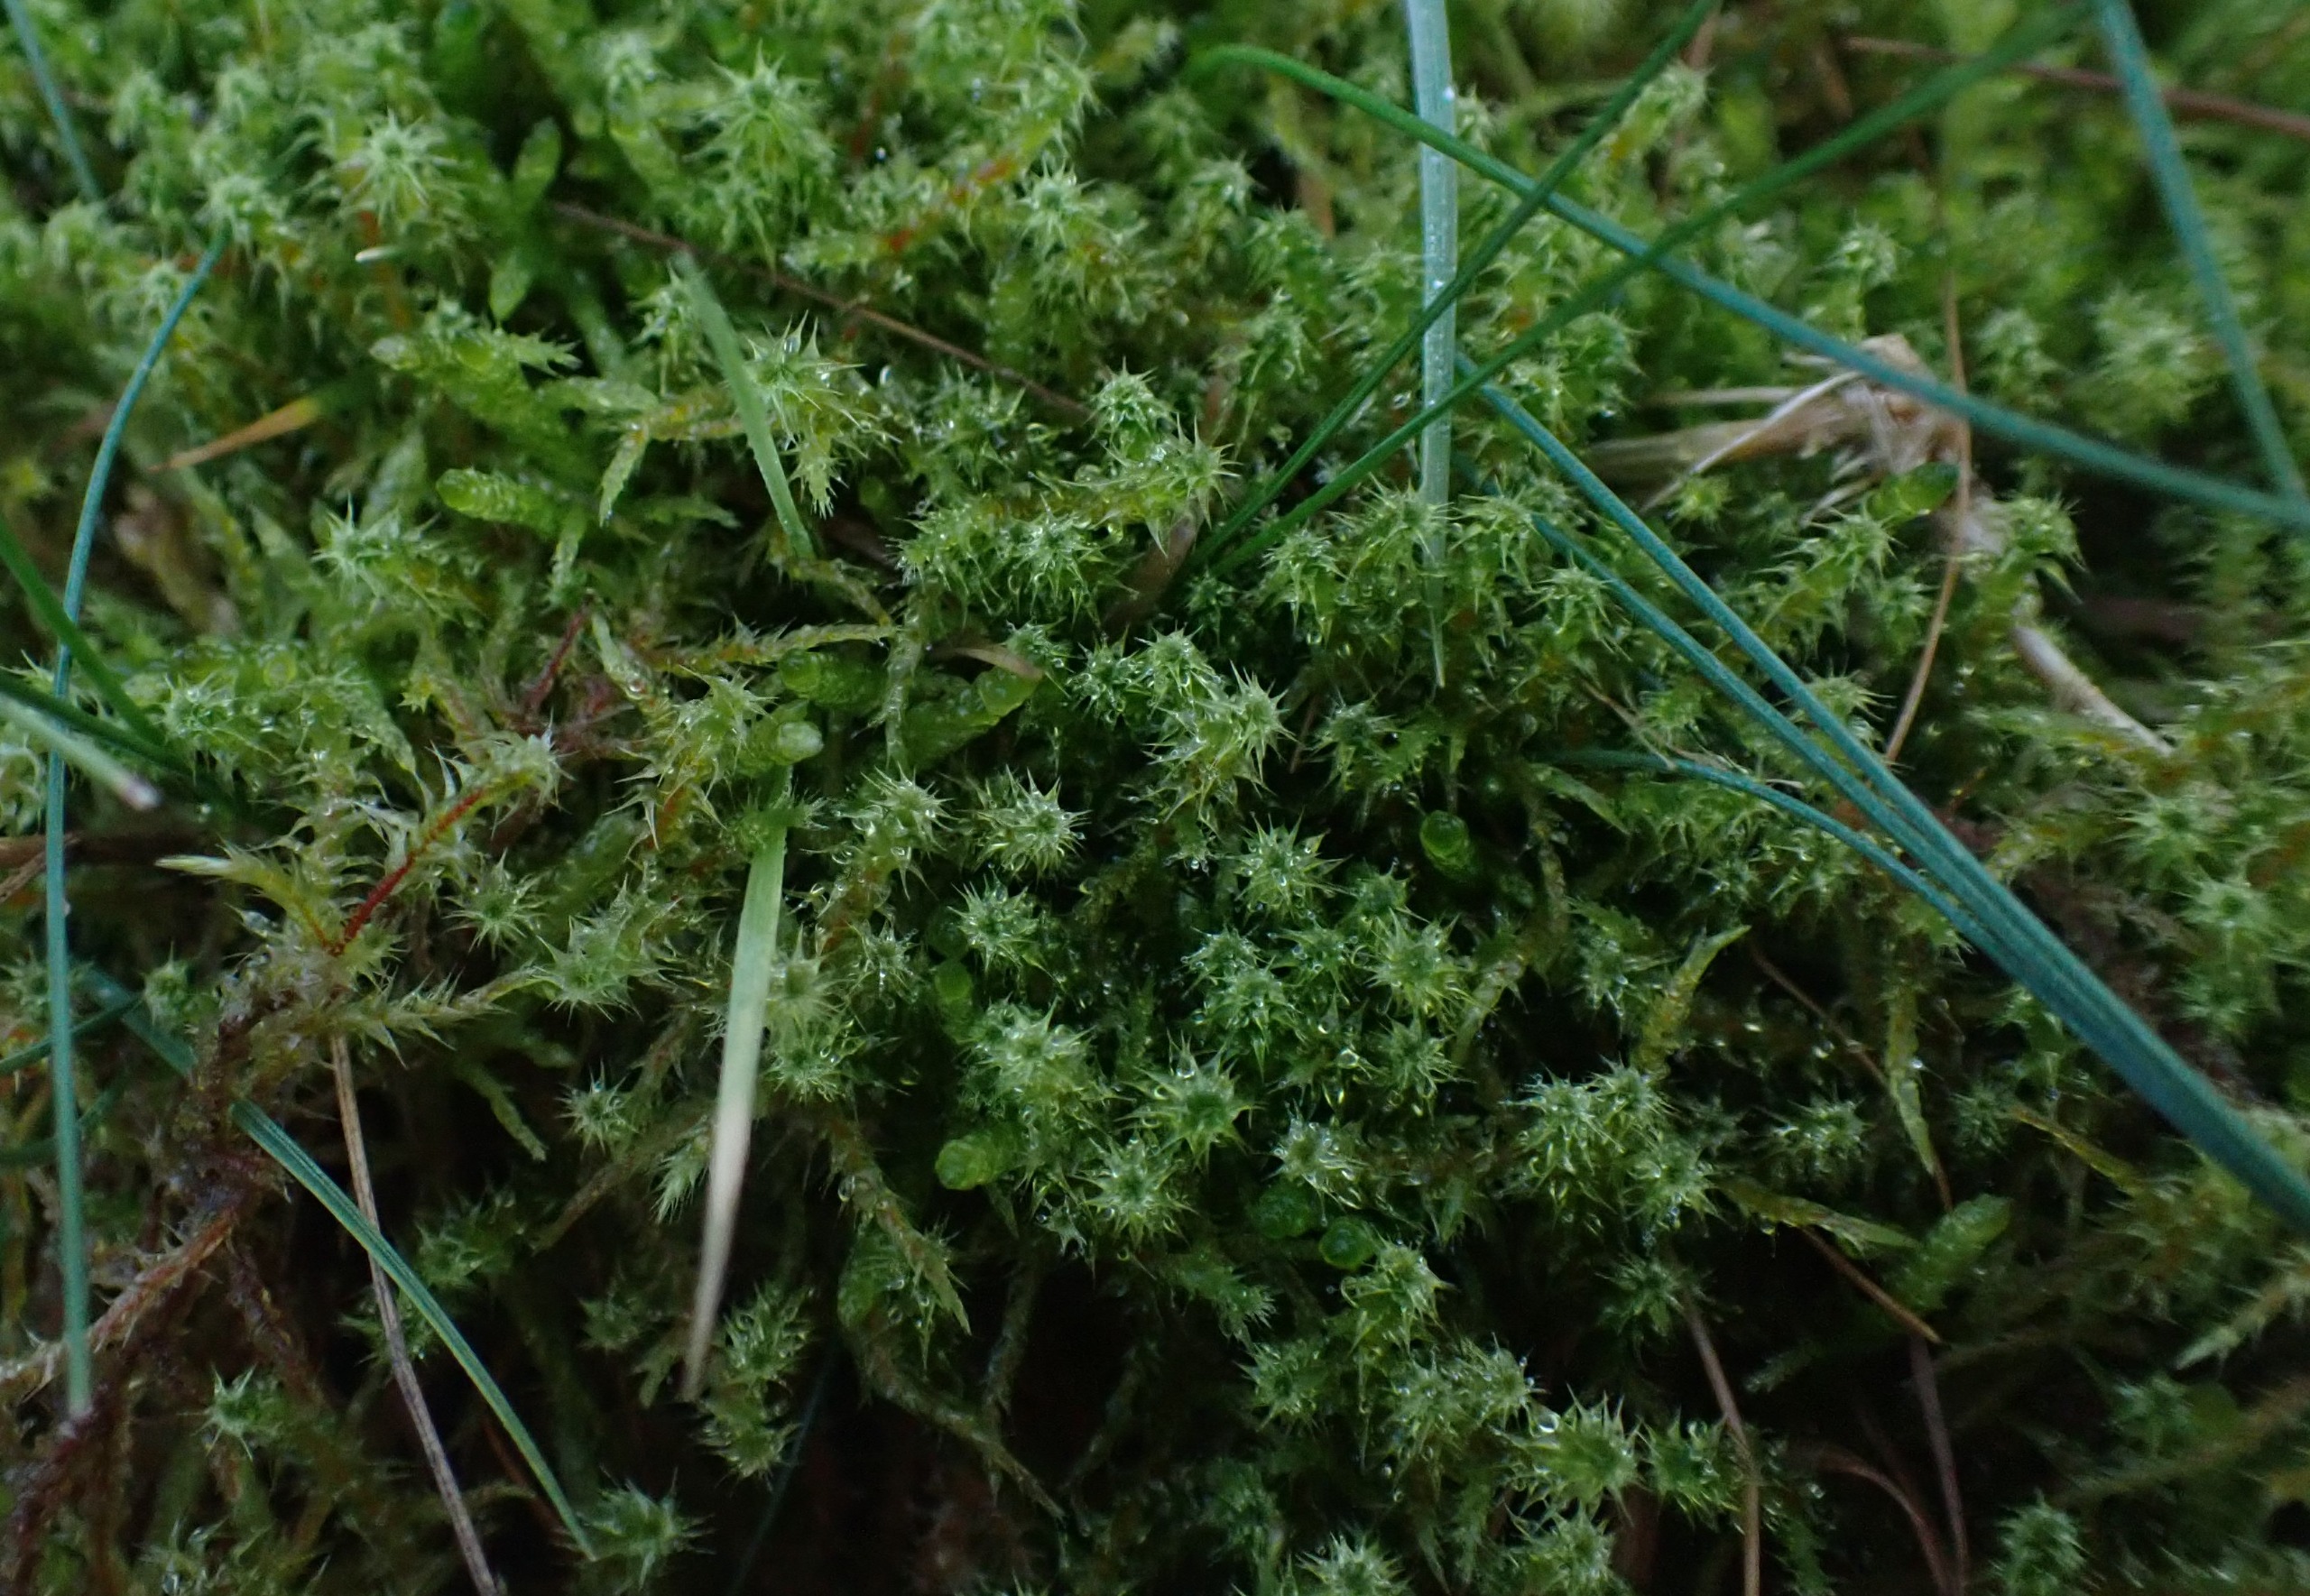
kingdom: Plantae
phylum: Bryophyta
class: Bryopsida
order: Hypnales
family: Hylocomiaceae
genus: Rhytidiadelphus
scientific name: Rhytidiadelphus squarrosus
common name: Plæne-kransemos
